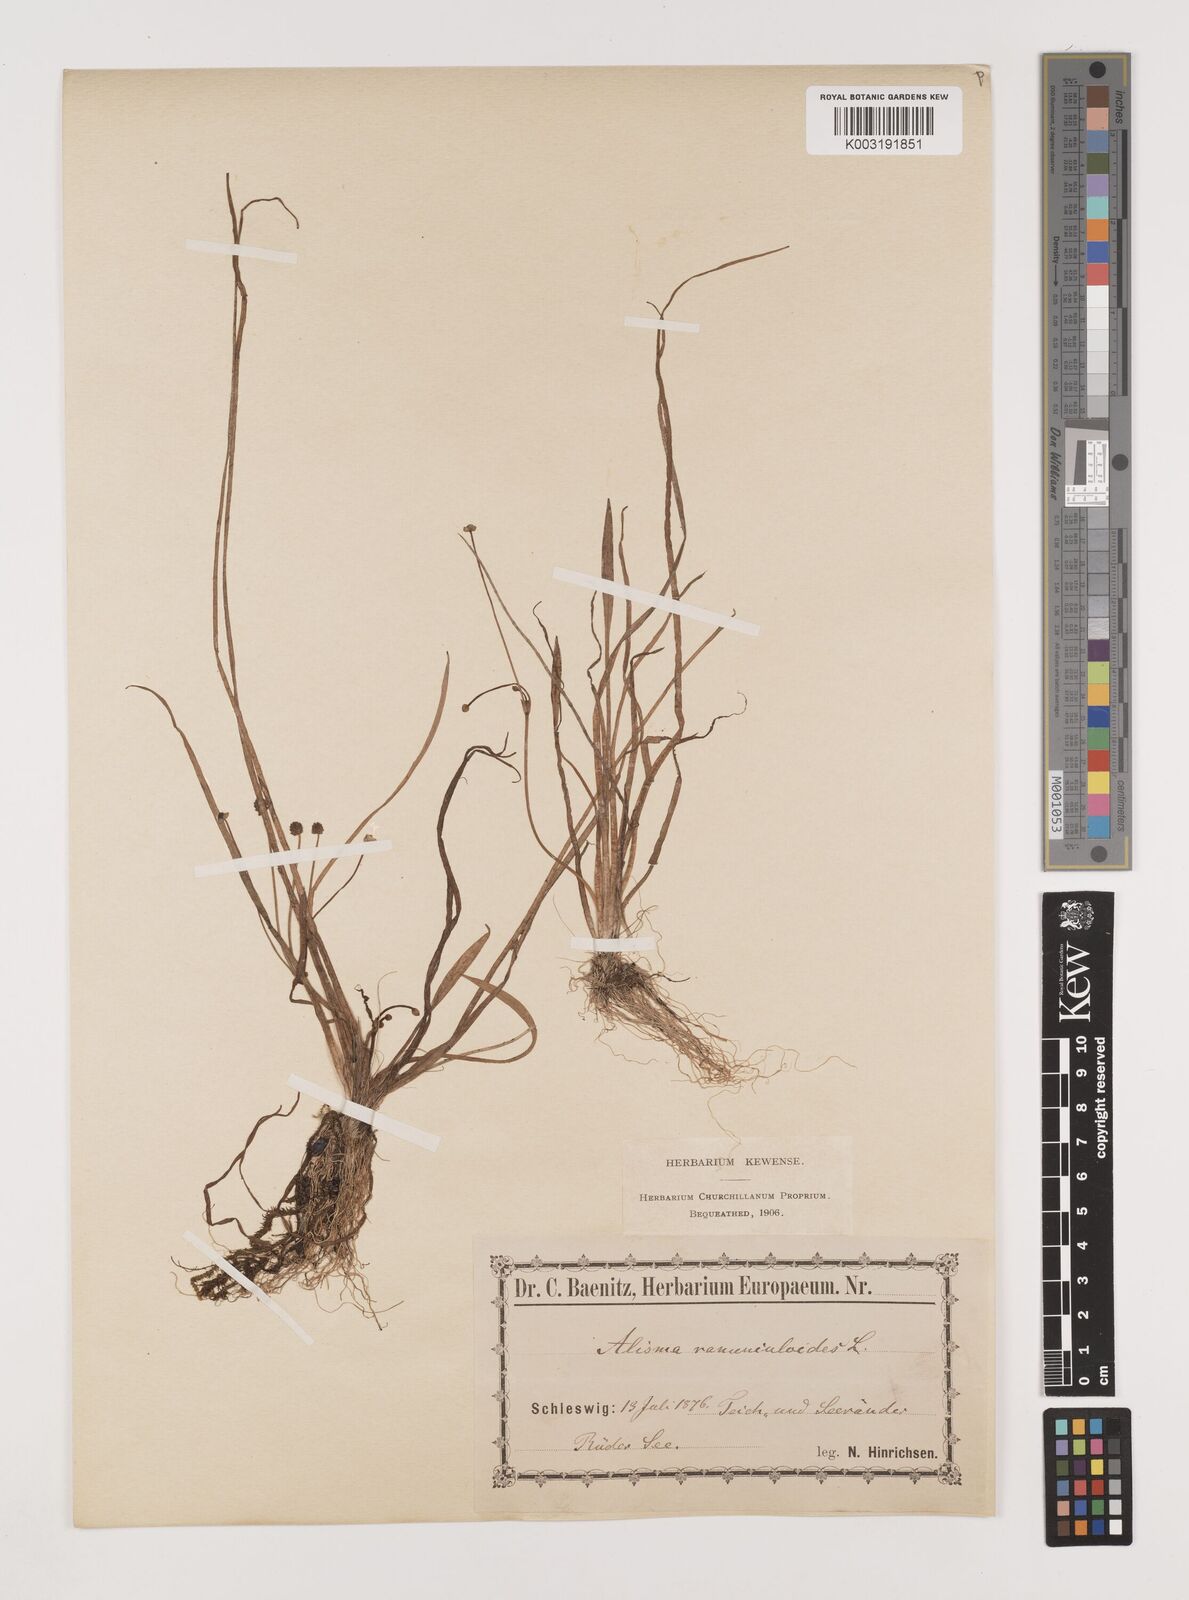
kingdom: Plantae
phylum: Tracheophyta
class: Liliopsida
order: Alismatales
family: Alismataceae
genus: Baldellia
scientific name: Baldellia ranunculoides
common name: Lesser water-plantain
